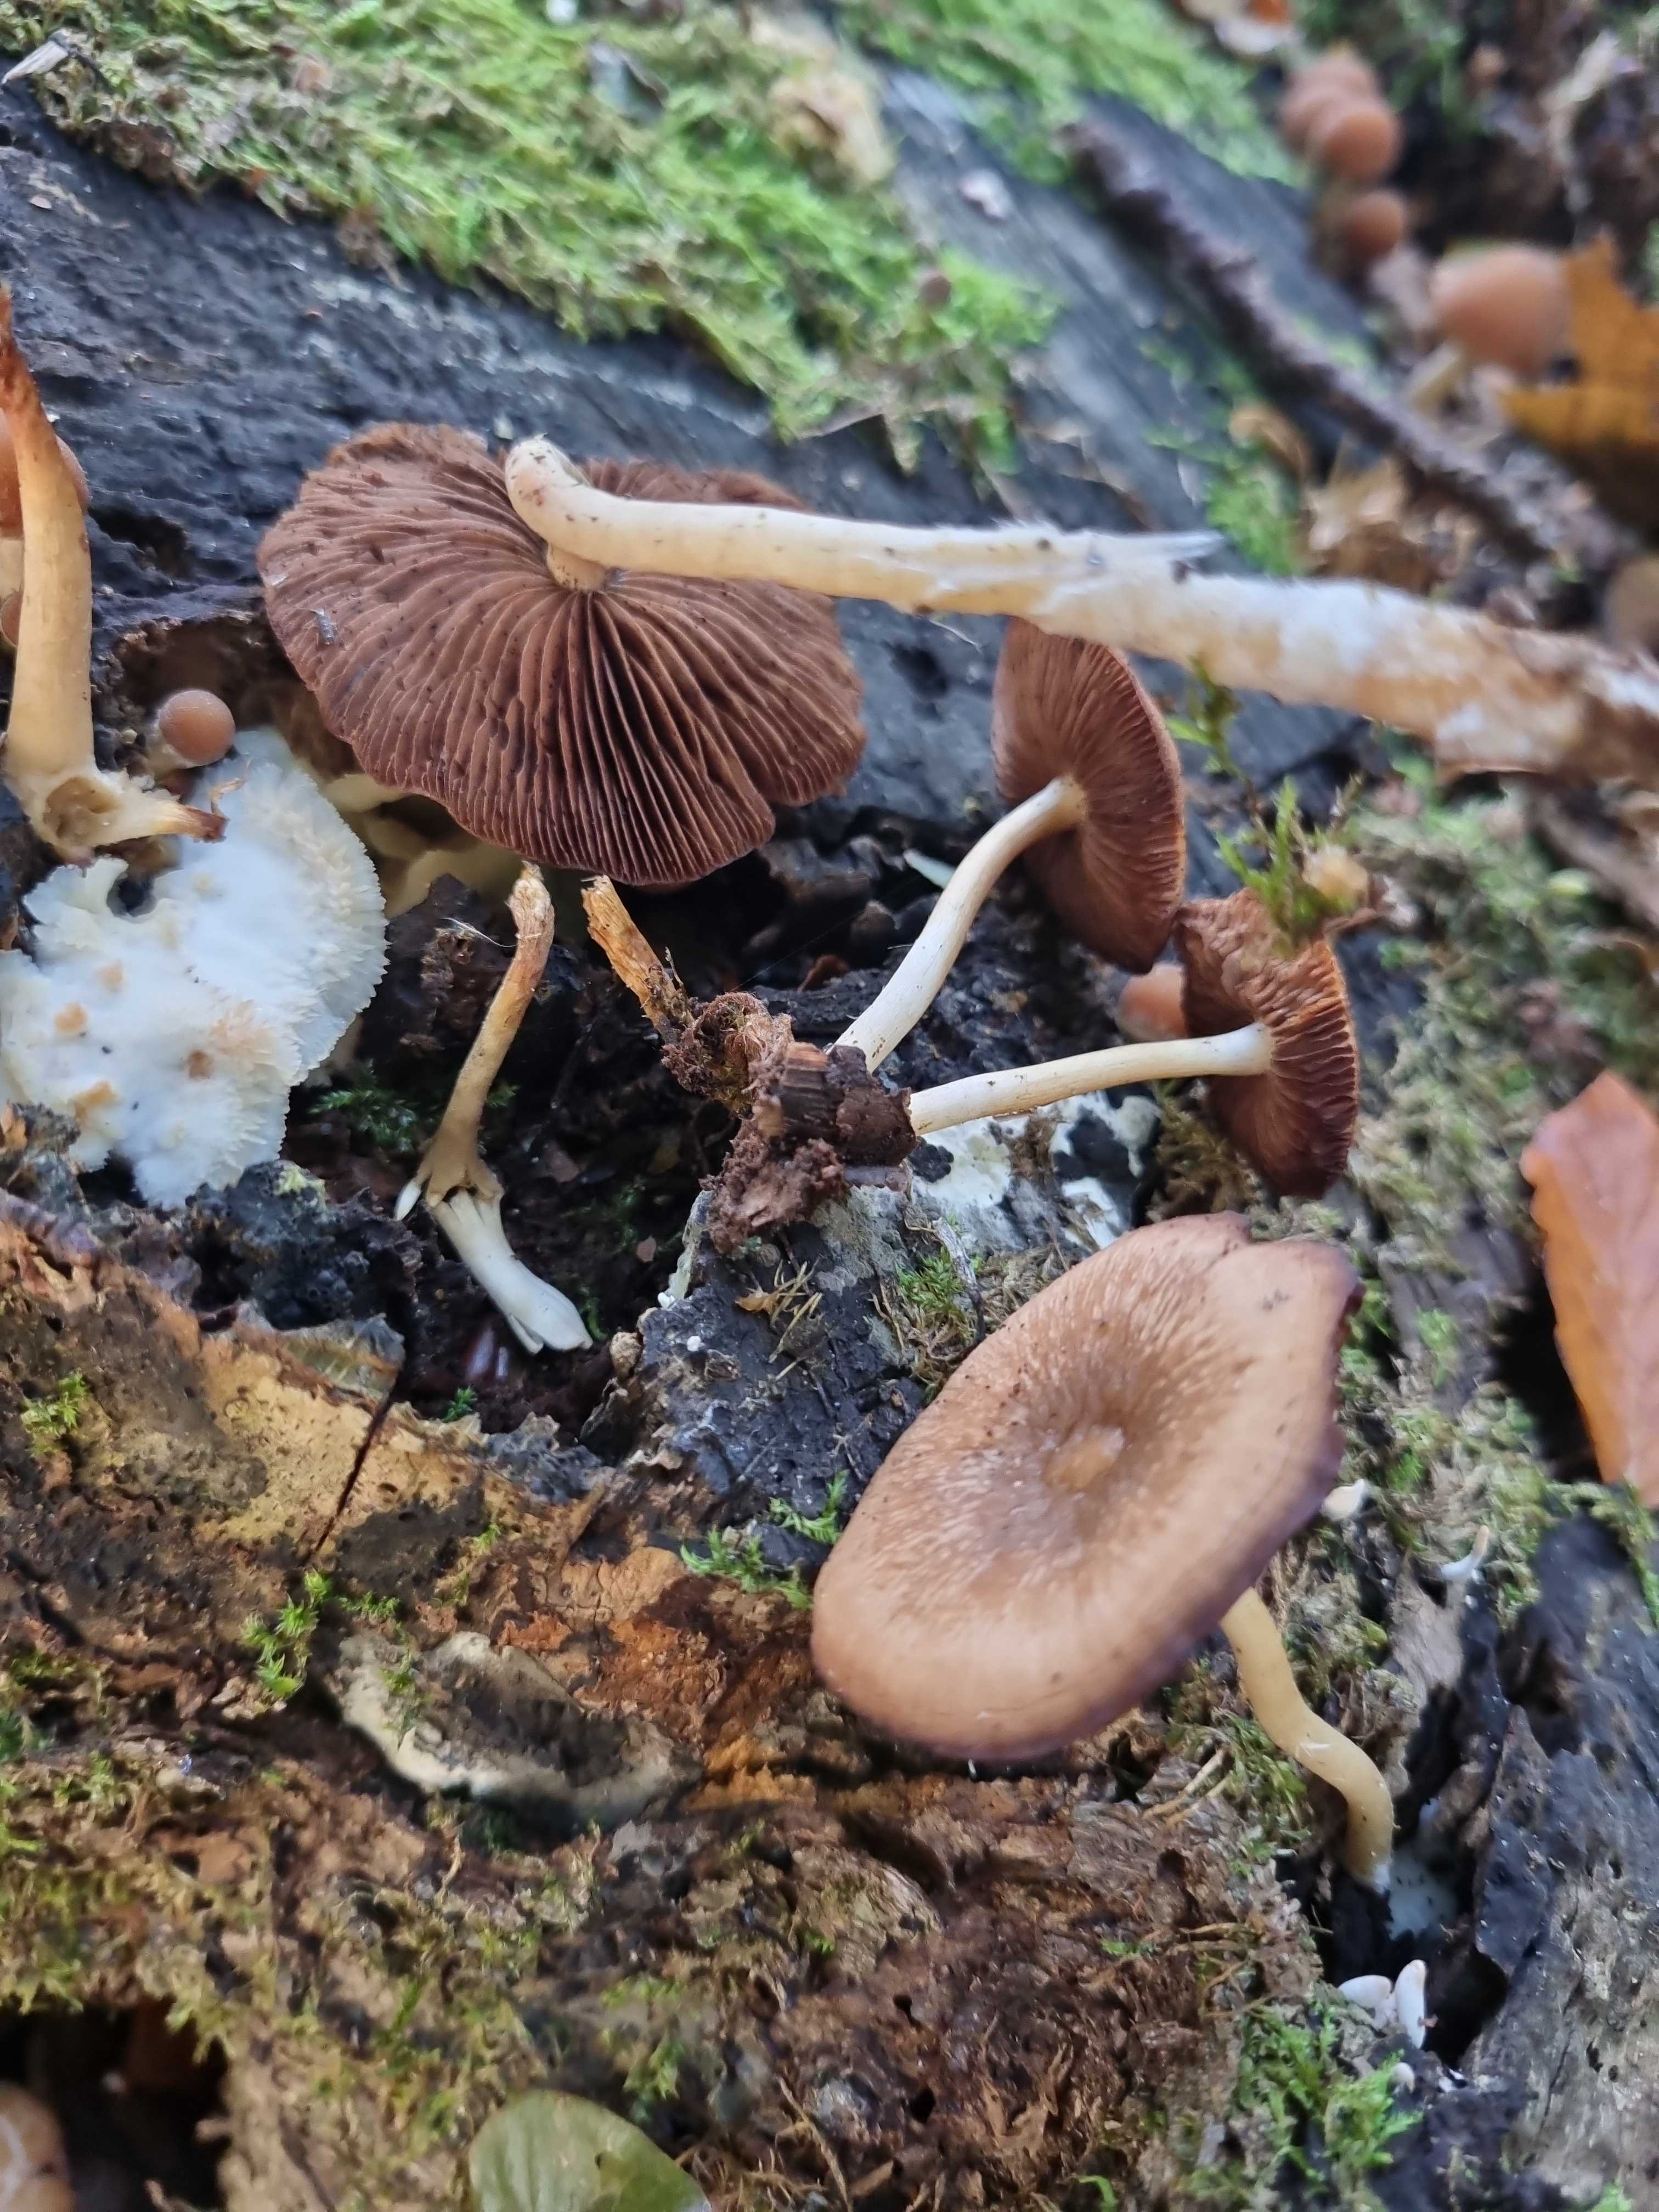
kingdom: Fungi
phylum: Basidiomycota
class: Agaricomycetes
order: Agaricales
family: Psathyrellaceae
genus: Psathyrella
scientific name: Psathyrella piluliformis
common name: lysstokket mørkhat
